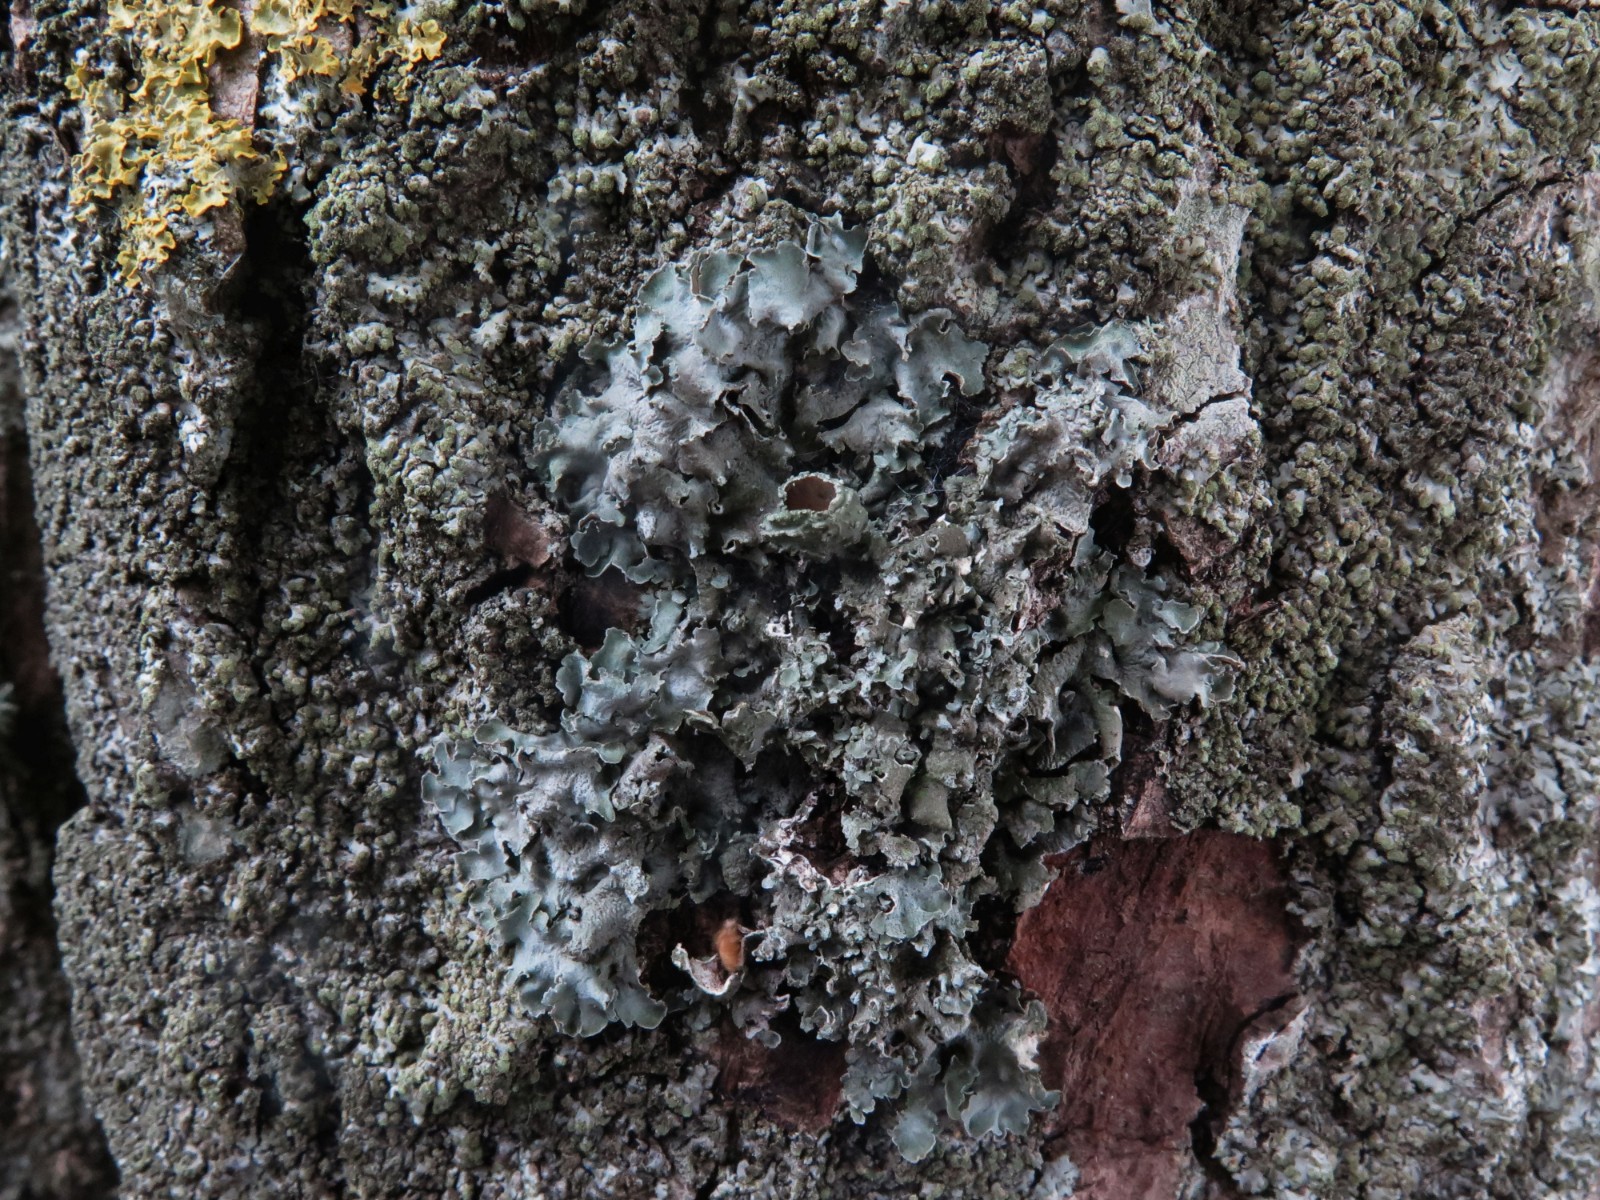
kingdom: Fungi
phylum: Ascomycota
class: Lecanoromycetes
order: Lecanorales
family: Parmeliaceae
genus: Pleurosticta
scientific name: Pleurosticta acetabulum
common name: stor skållav
